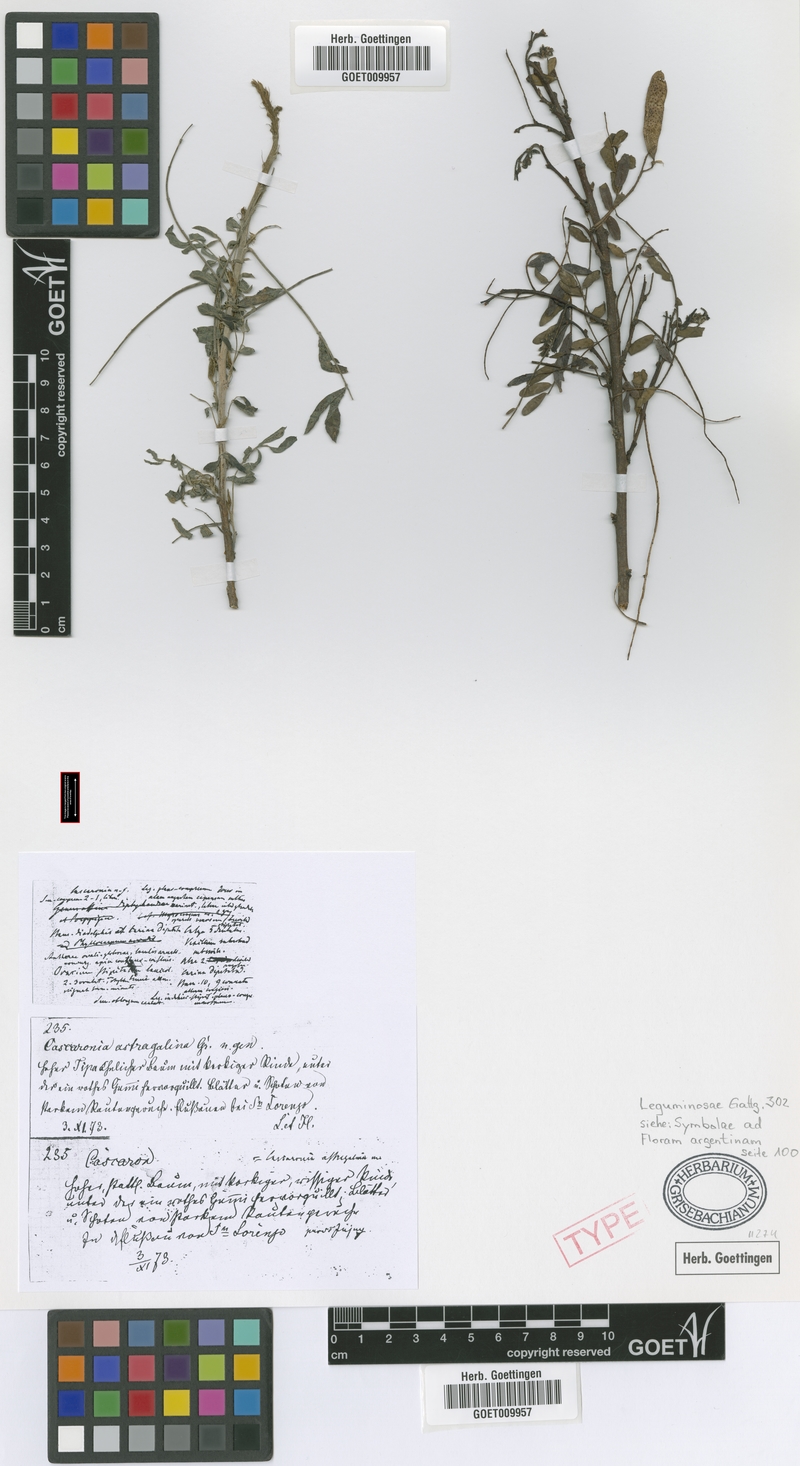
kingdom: Plantae
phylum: Tracheophyta
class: Magnoliopsida
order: Fabales
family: Fabaceae
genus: Cascaronia
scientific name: Cascaronia astragalina
